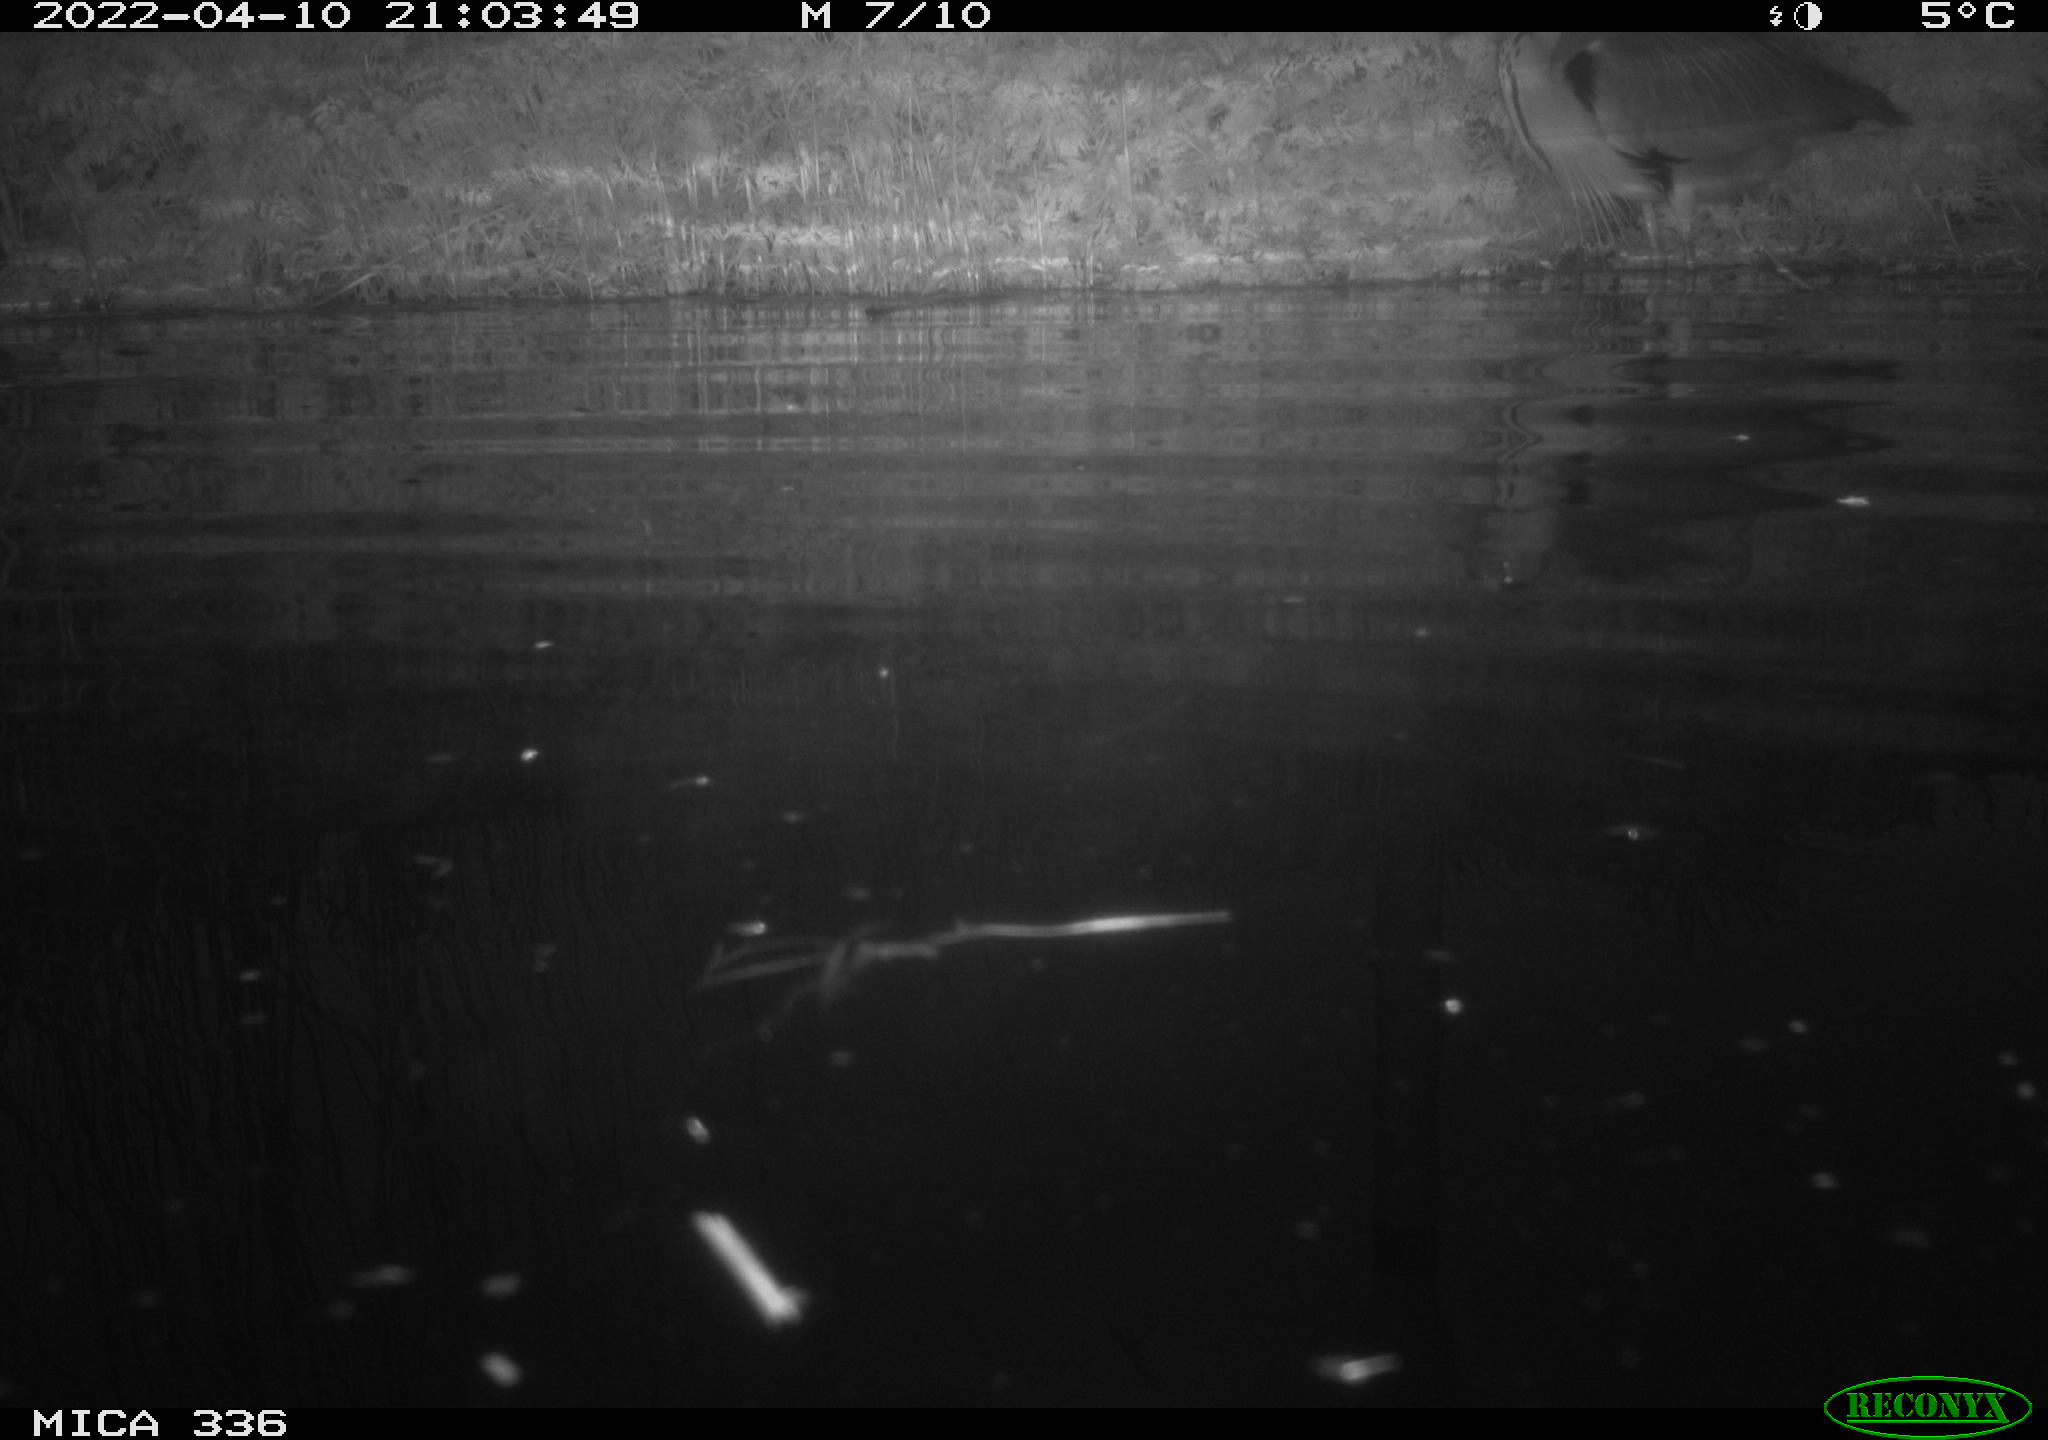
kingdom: Animalia
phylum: Chordata
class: Aves
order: Pelecaniformes
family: Ardeidae
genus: Ardea
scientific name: Ardea cinerea
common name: Grey heron
